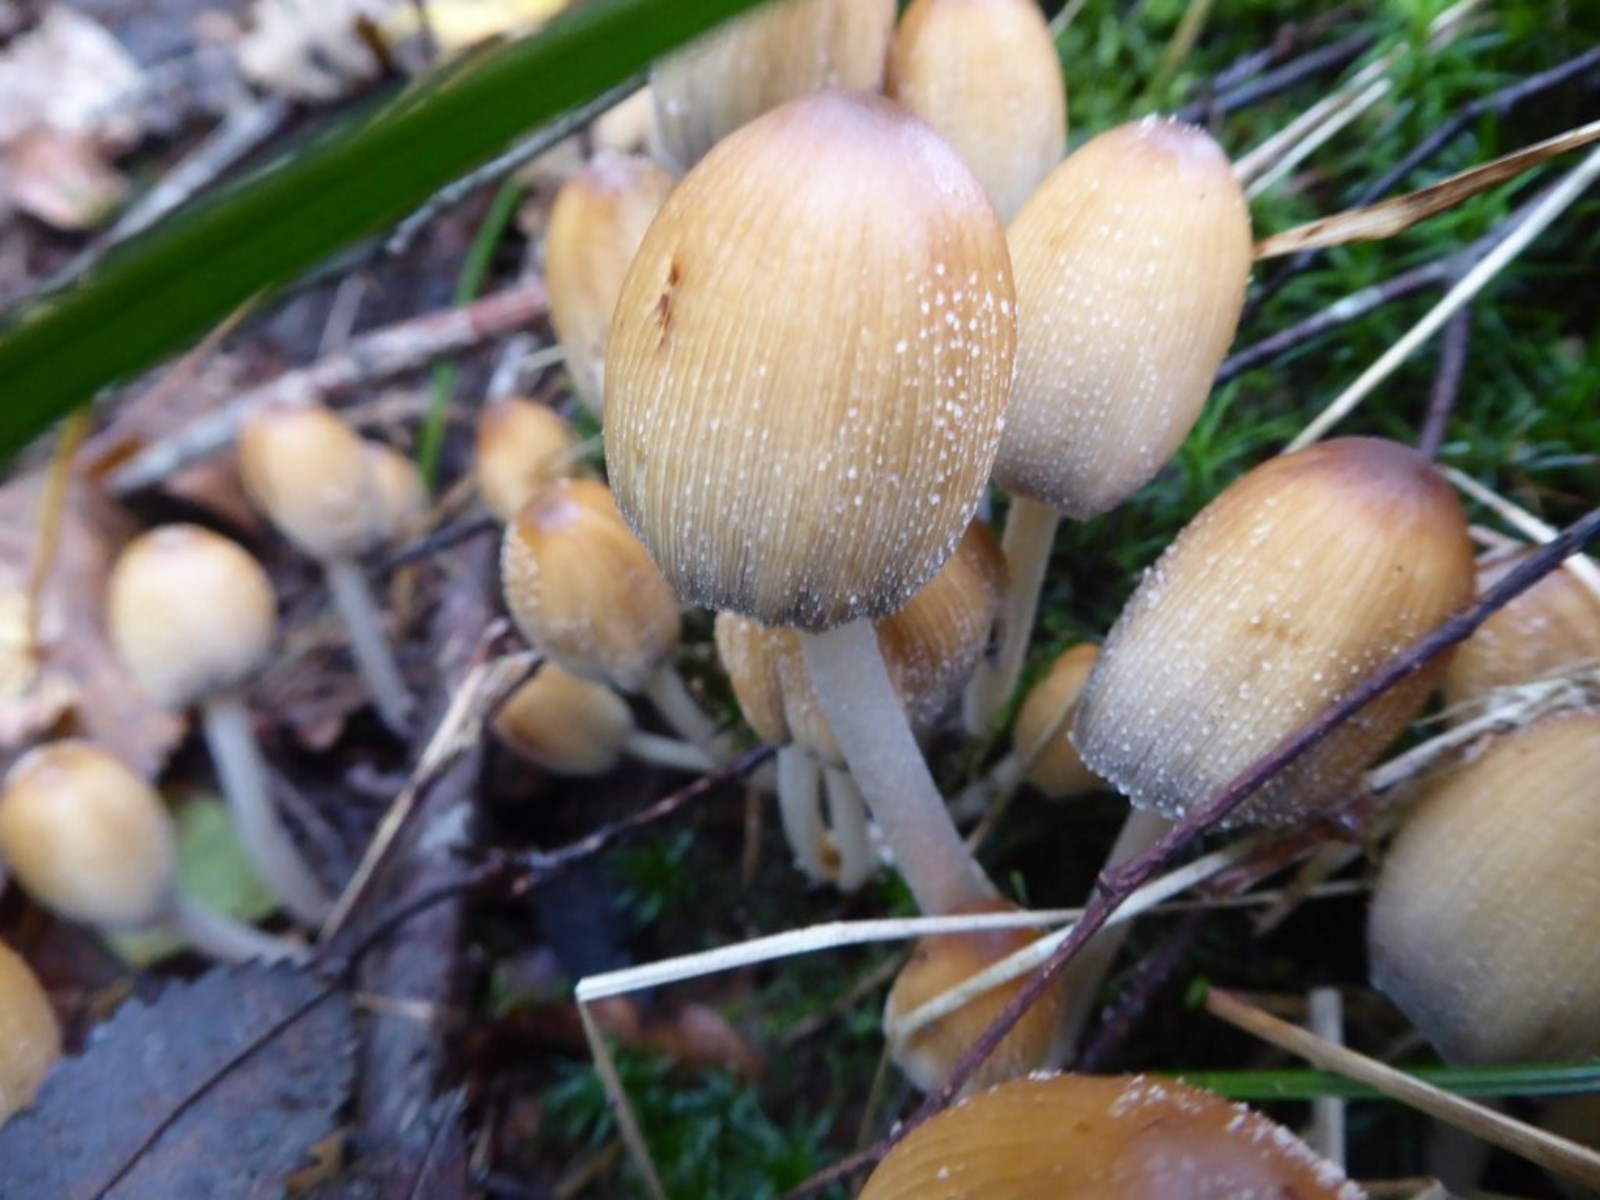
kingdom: Fungi
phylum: Basidiomycota
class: Agaricomycetes
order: Agaricales
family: Psathyrellaceae
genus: Coprinellus
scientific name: Coprinellus micaceus
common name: glimmer-blækhat
